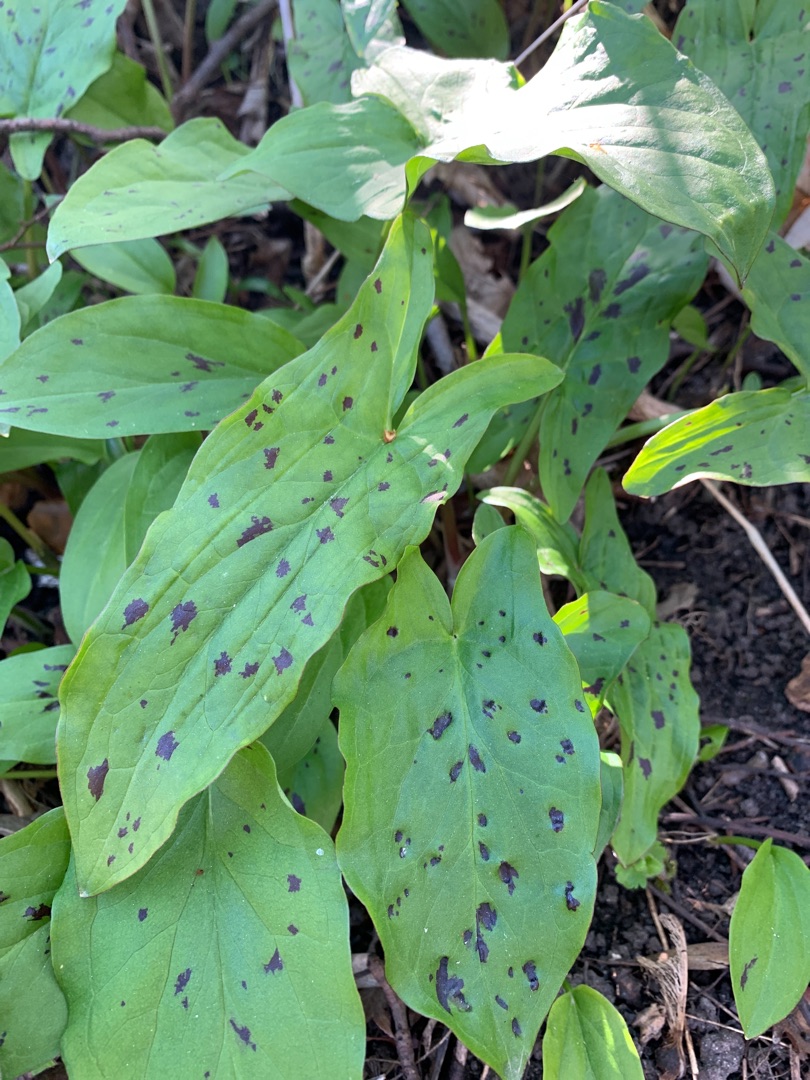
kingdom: Plantae
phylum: Tracheophyta
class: Liliopsida
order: Alismatales
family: Araceae
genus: Arum
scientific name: Arum maculatum
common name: Plettet arum
